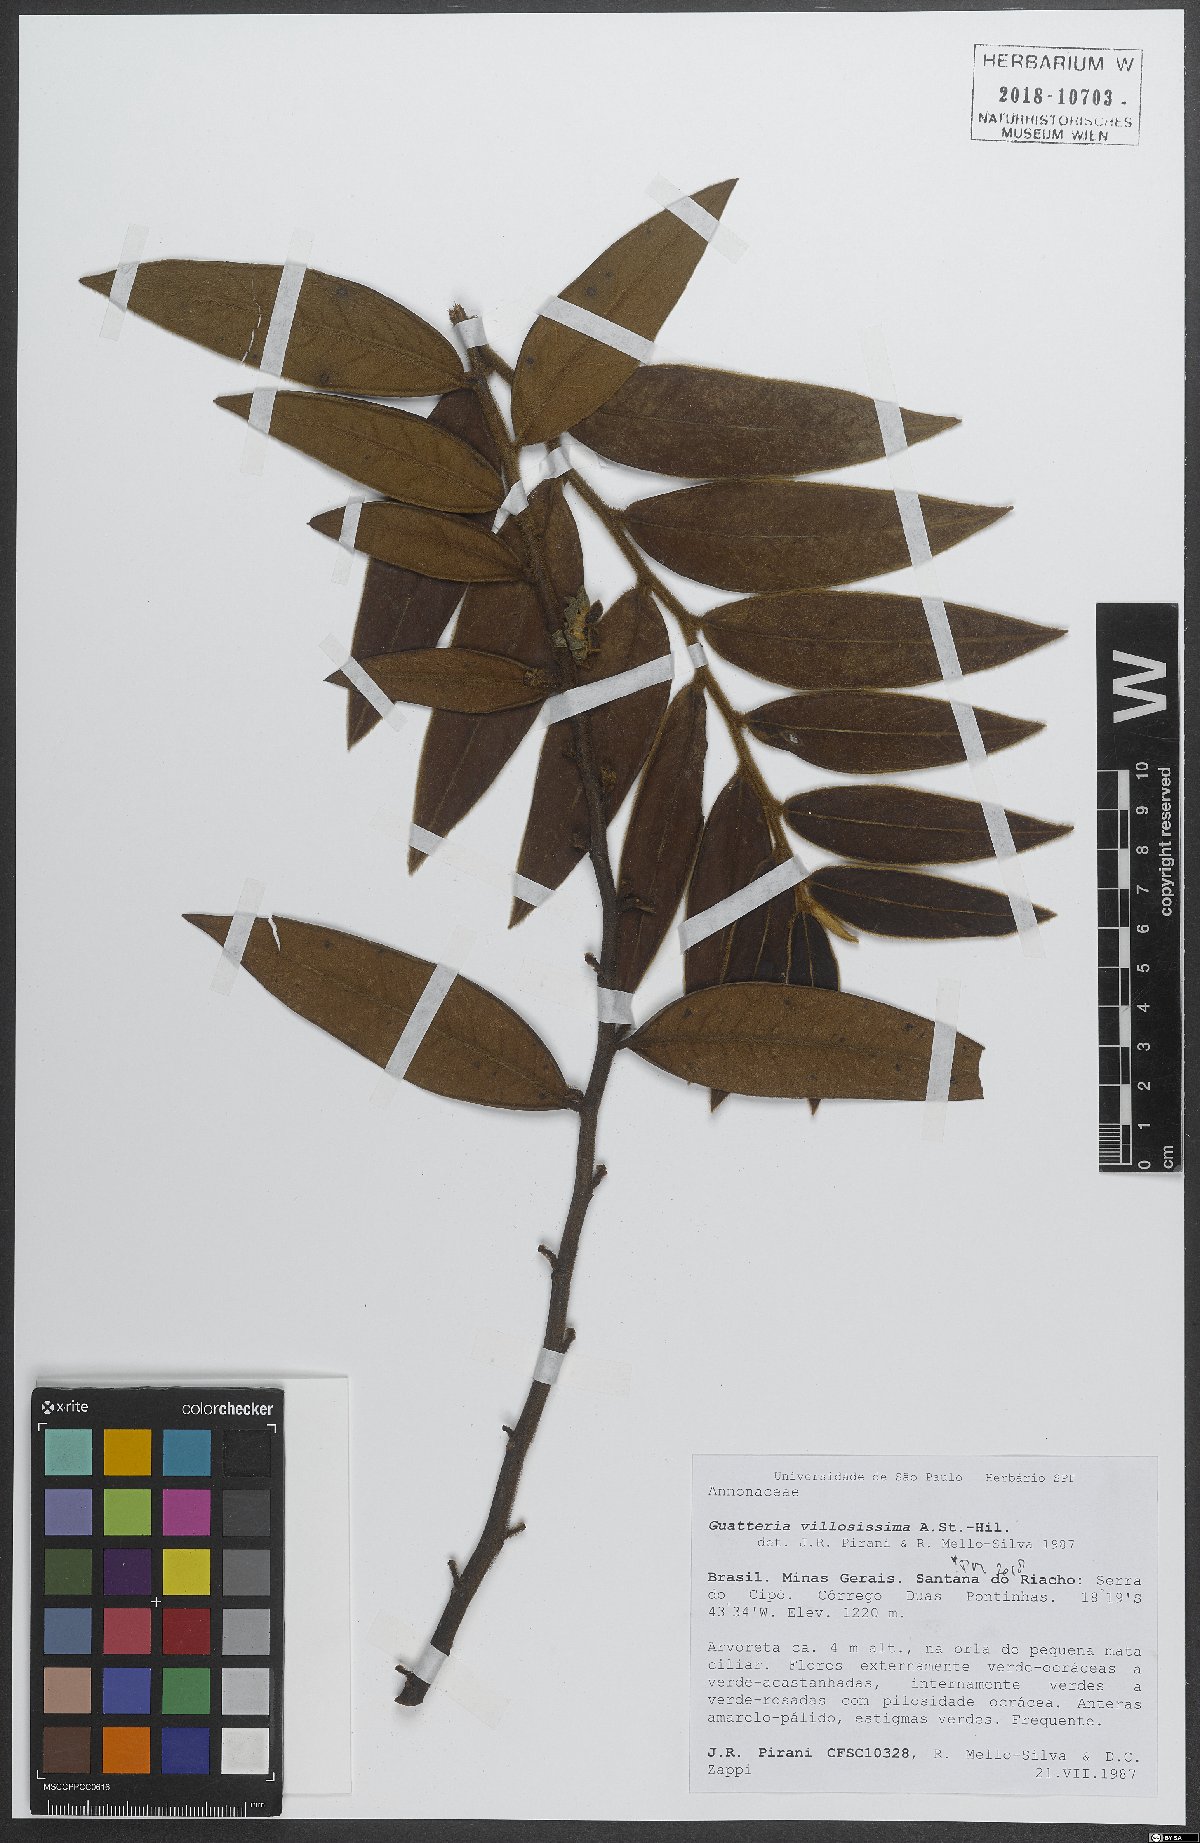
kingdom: Plantae
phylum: Tracheophyta
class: Magnoliopsida
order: Magnoliales
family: Annonaceae
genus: Guatteria
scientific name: Guatteria villosissima
